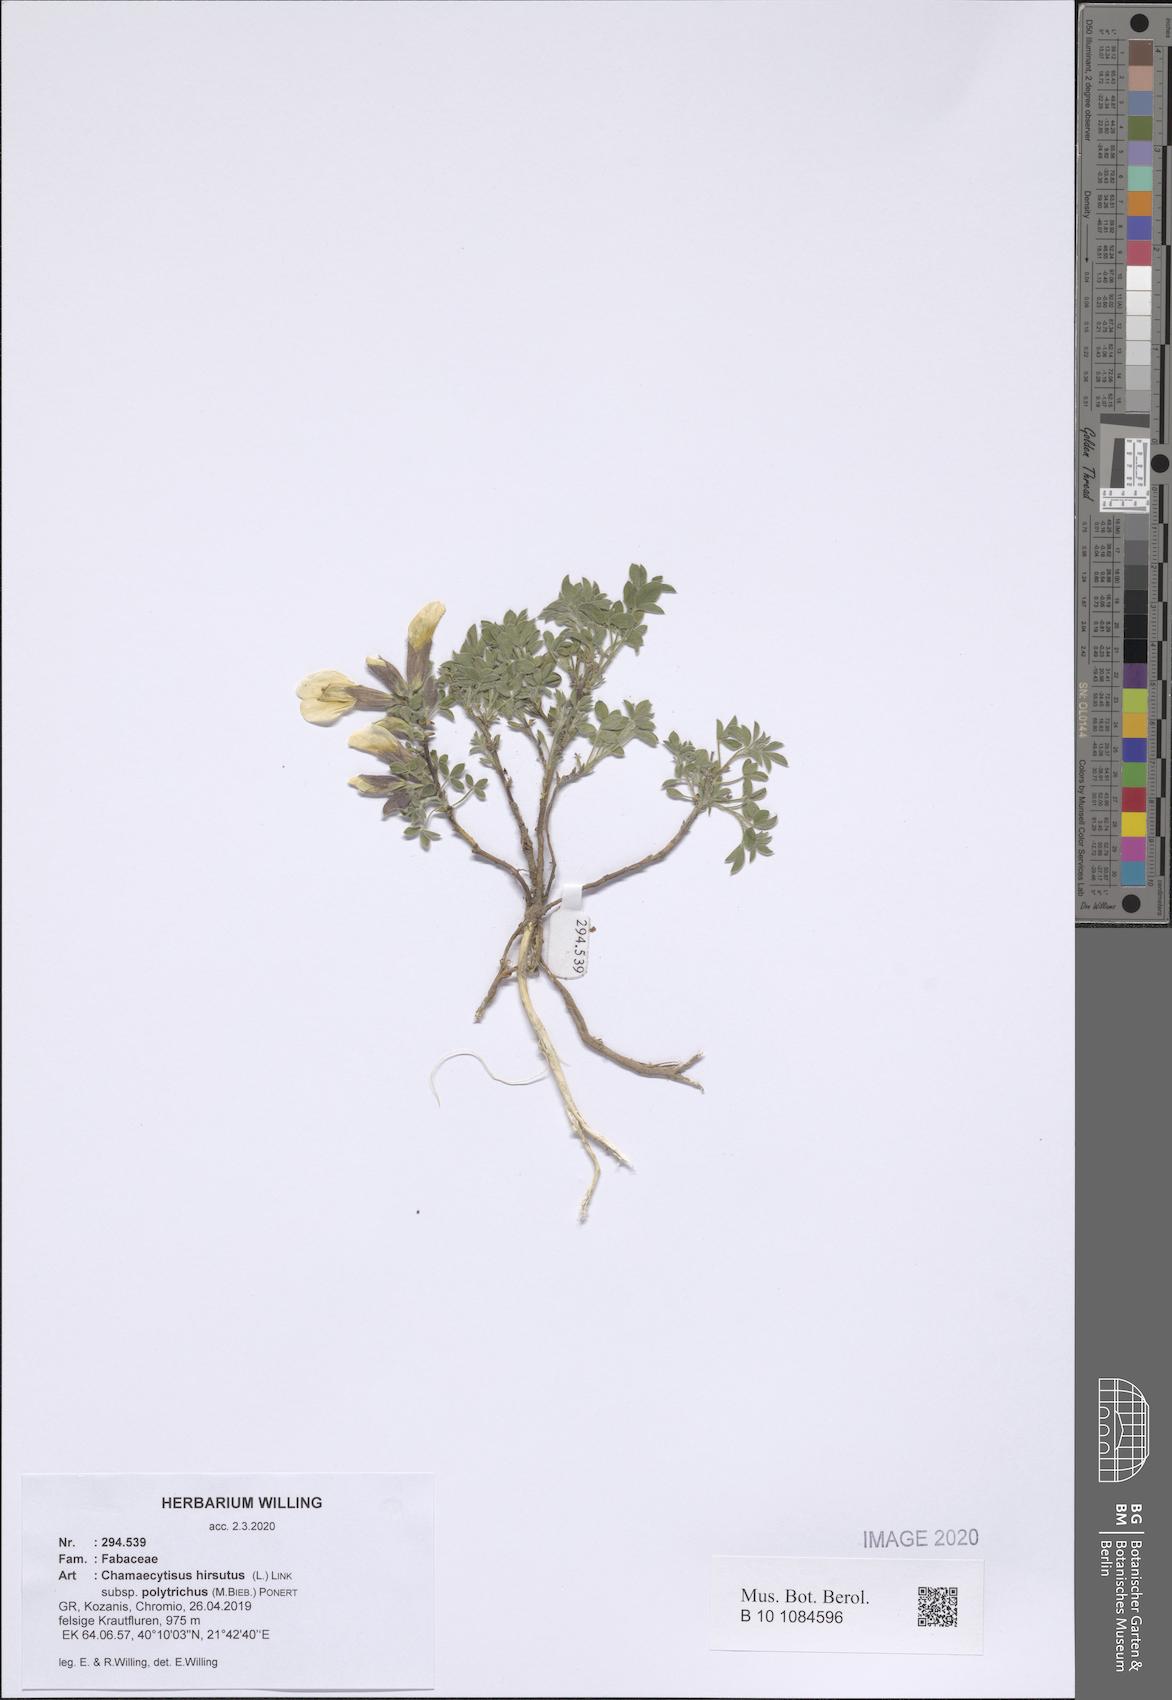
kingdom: Plantae
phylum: Tracheophyta
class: Magnoliopsida
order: Fabales
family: Fabaceae
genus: Chamaecytisus
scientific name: Chamaecytisus hirsutus
